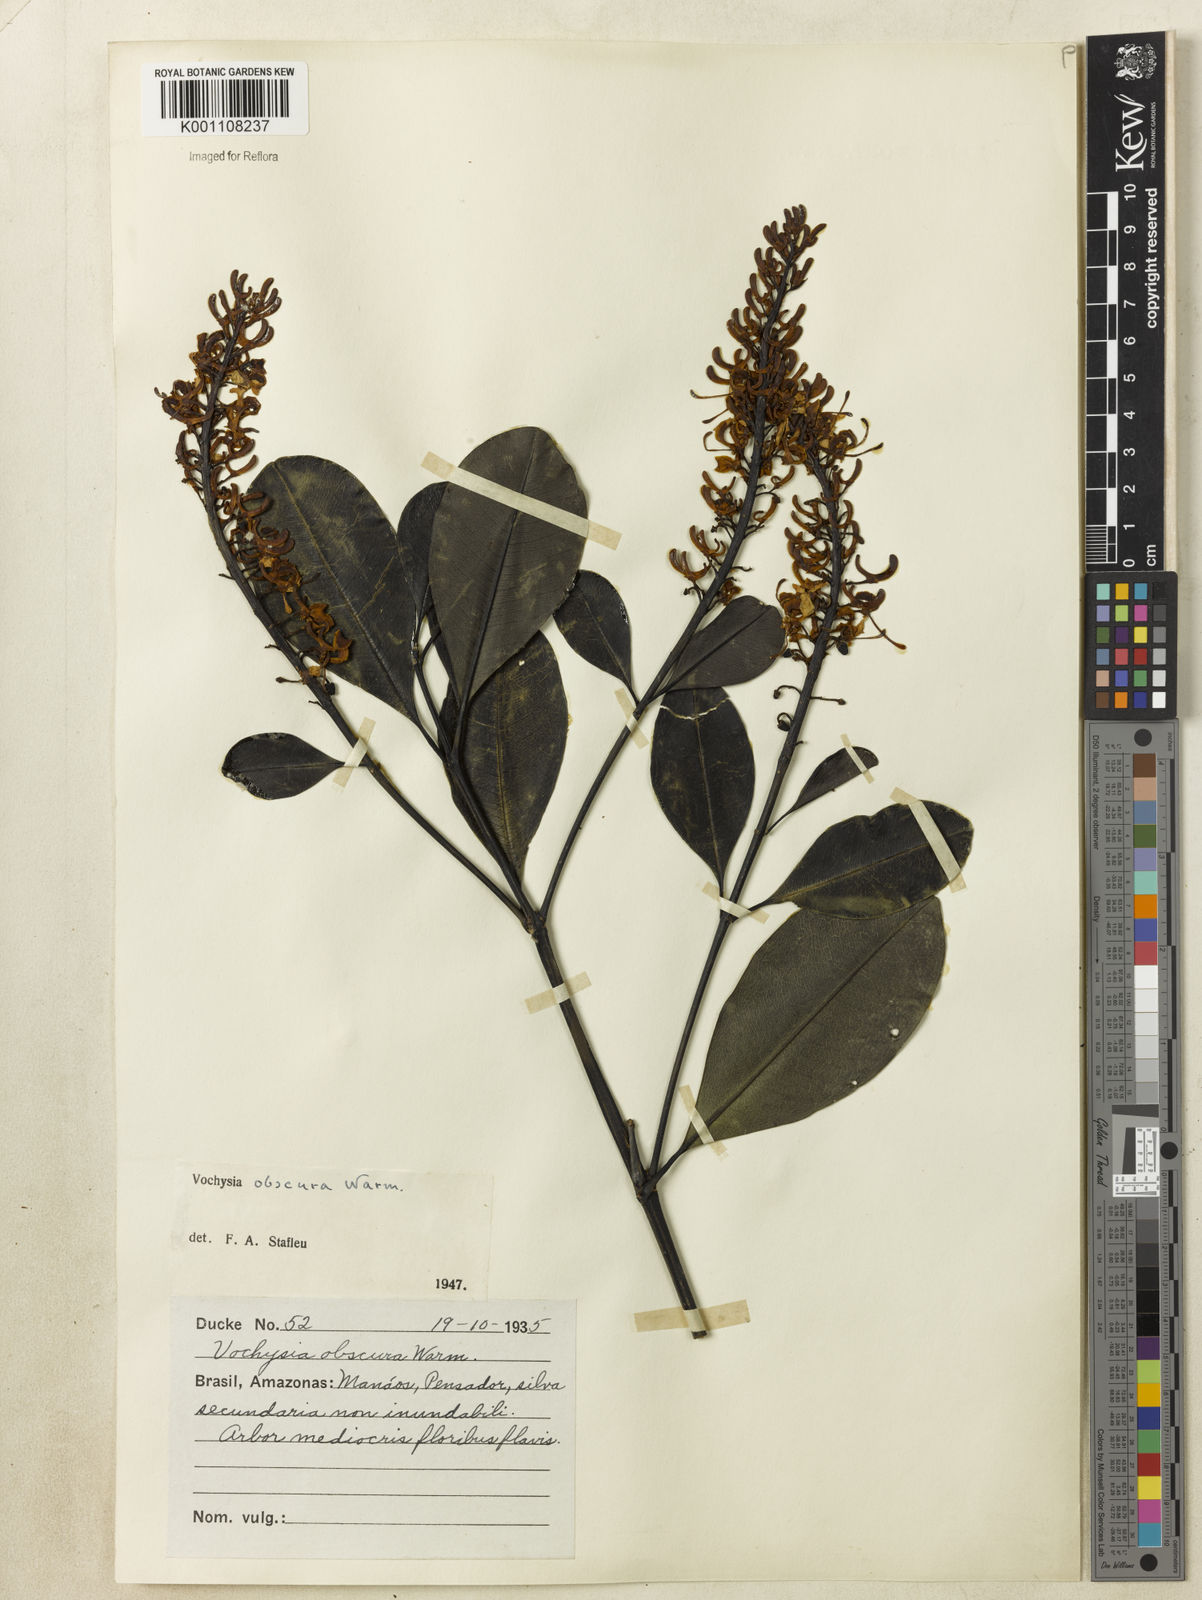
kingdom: Plantae
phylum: Tracheophyta
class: Magnoliopsida
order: Myrtales
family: Vochysiaceae
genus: Vochysia
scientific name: Vochysia obscura
